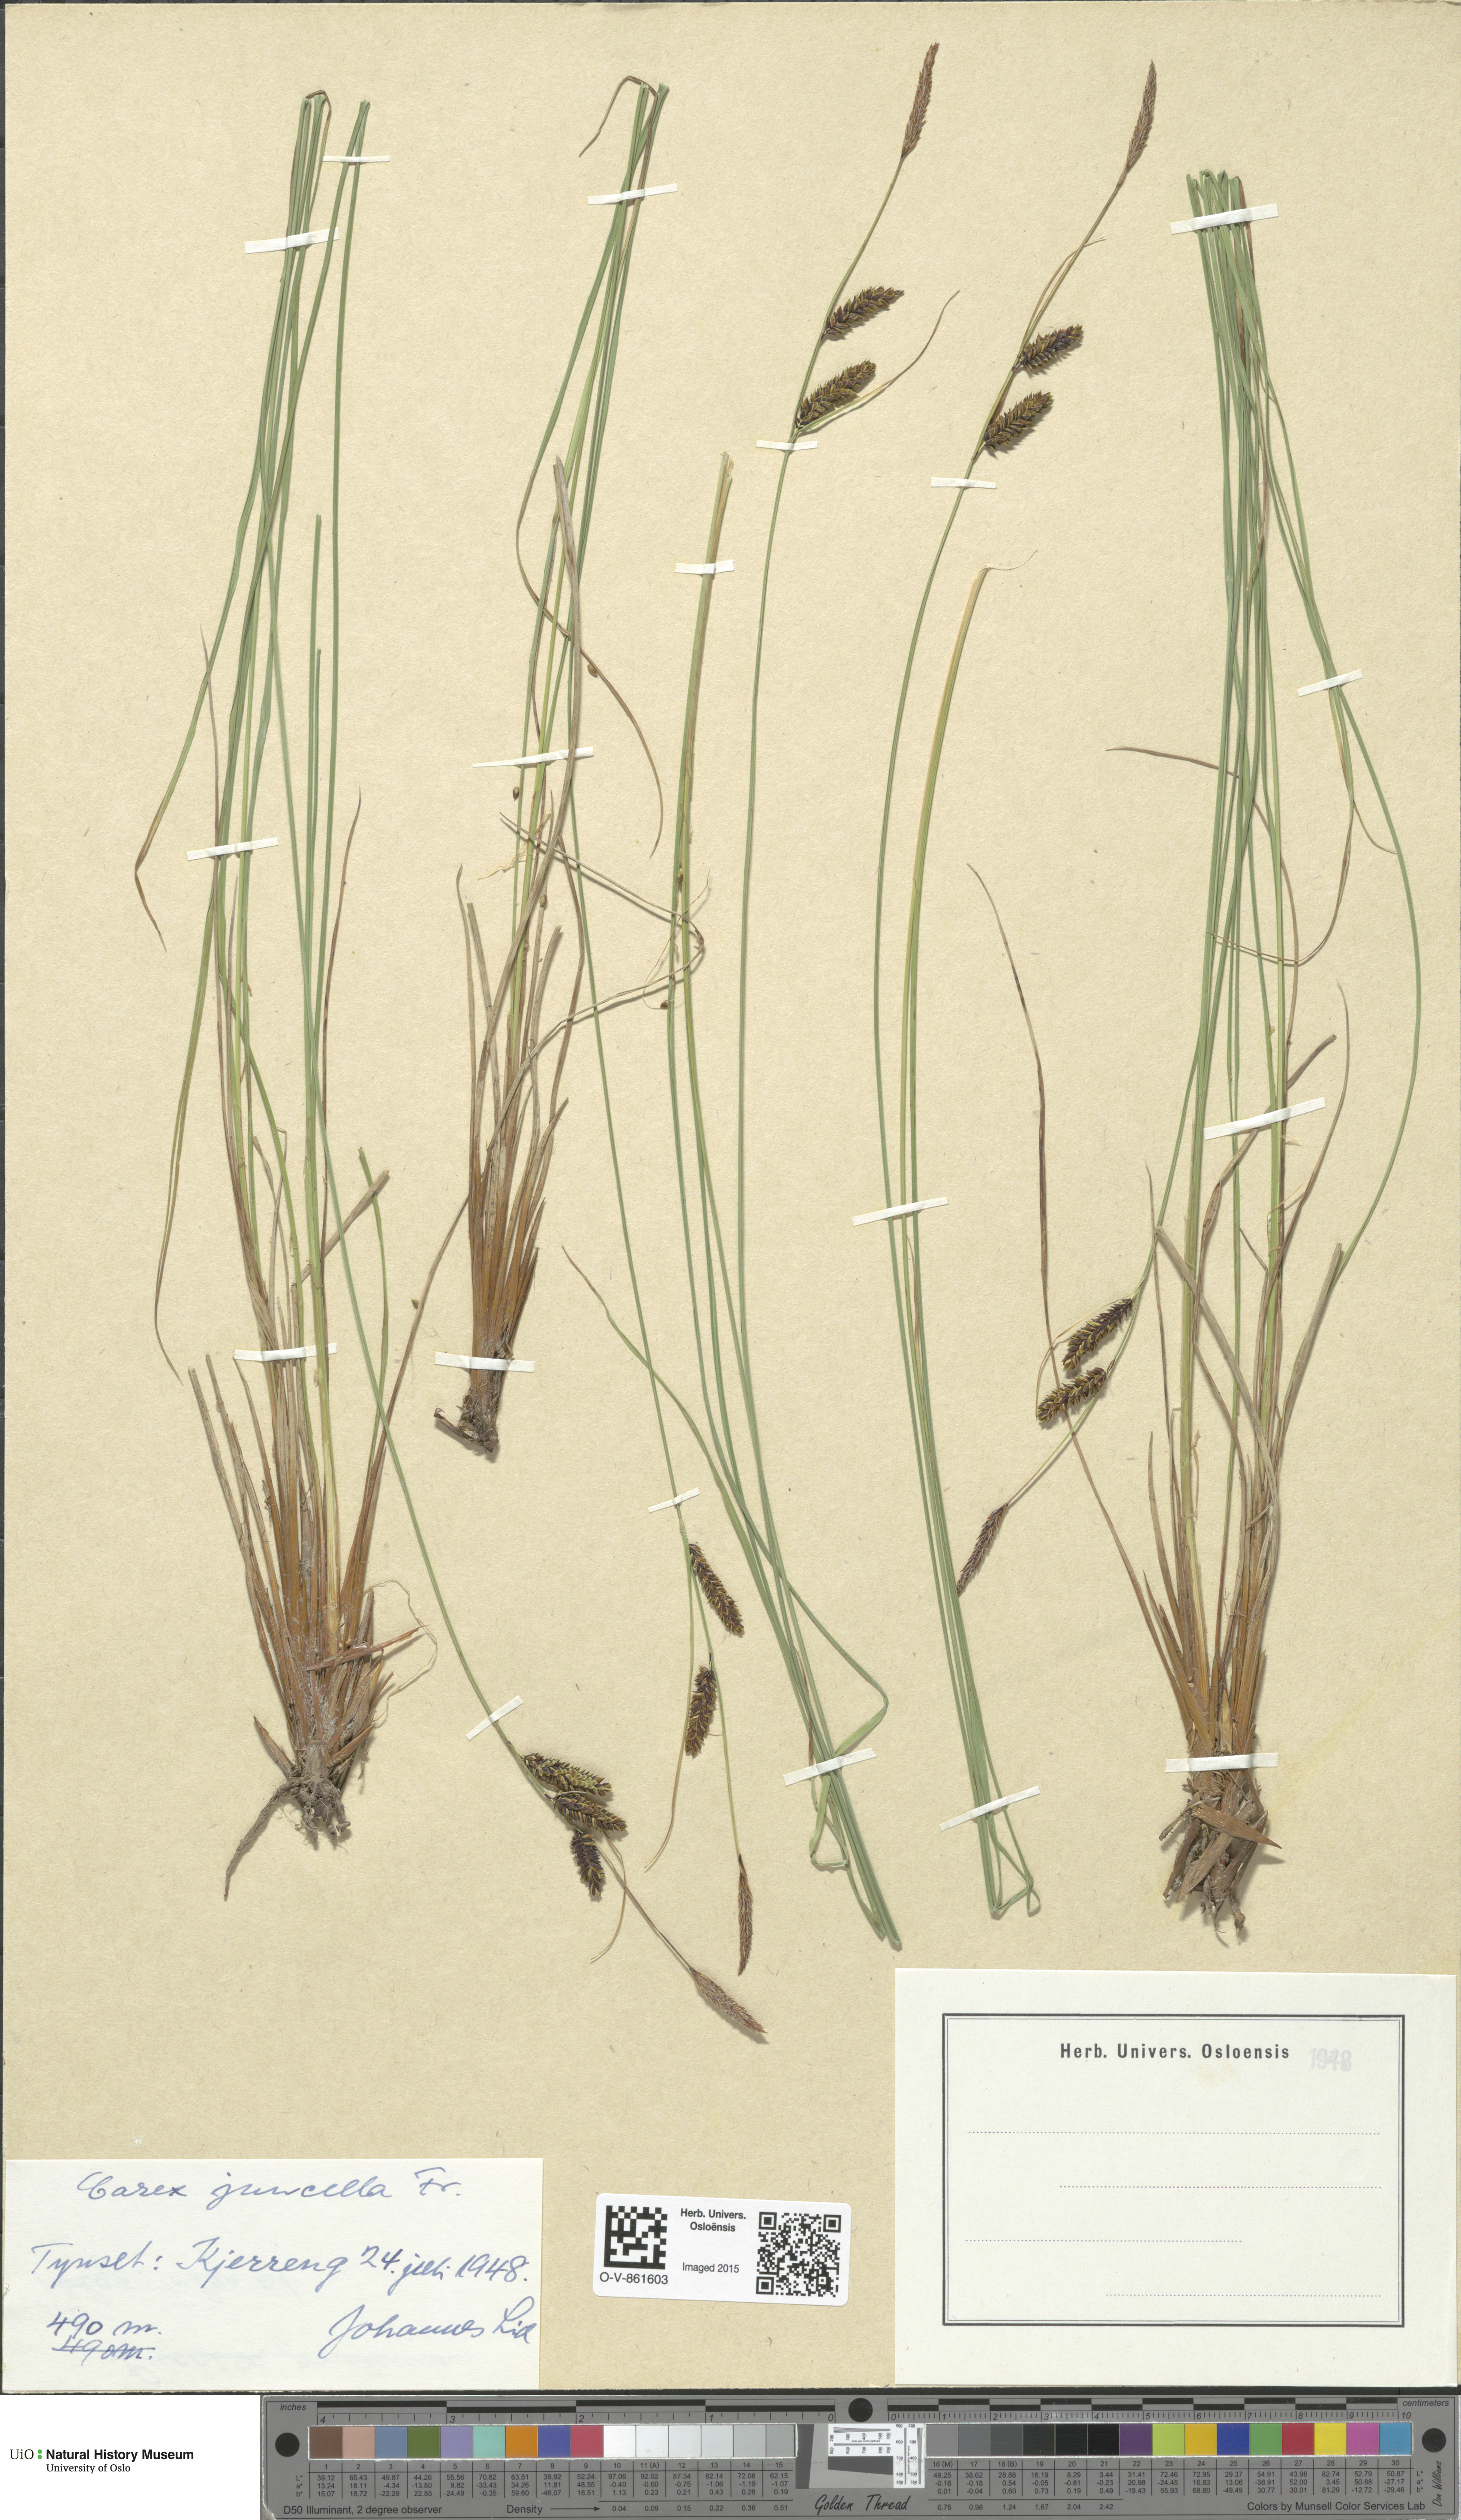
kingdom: Plantae
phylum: Tracheophyta
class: Liliopsida
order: Poales
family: Cyperaceae
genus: Carex
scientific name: Carex nigra
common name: Common sedge
